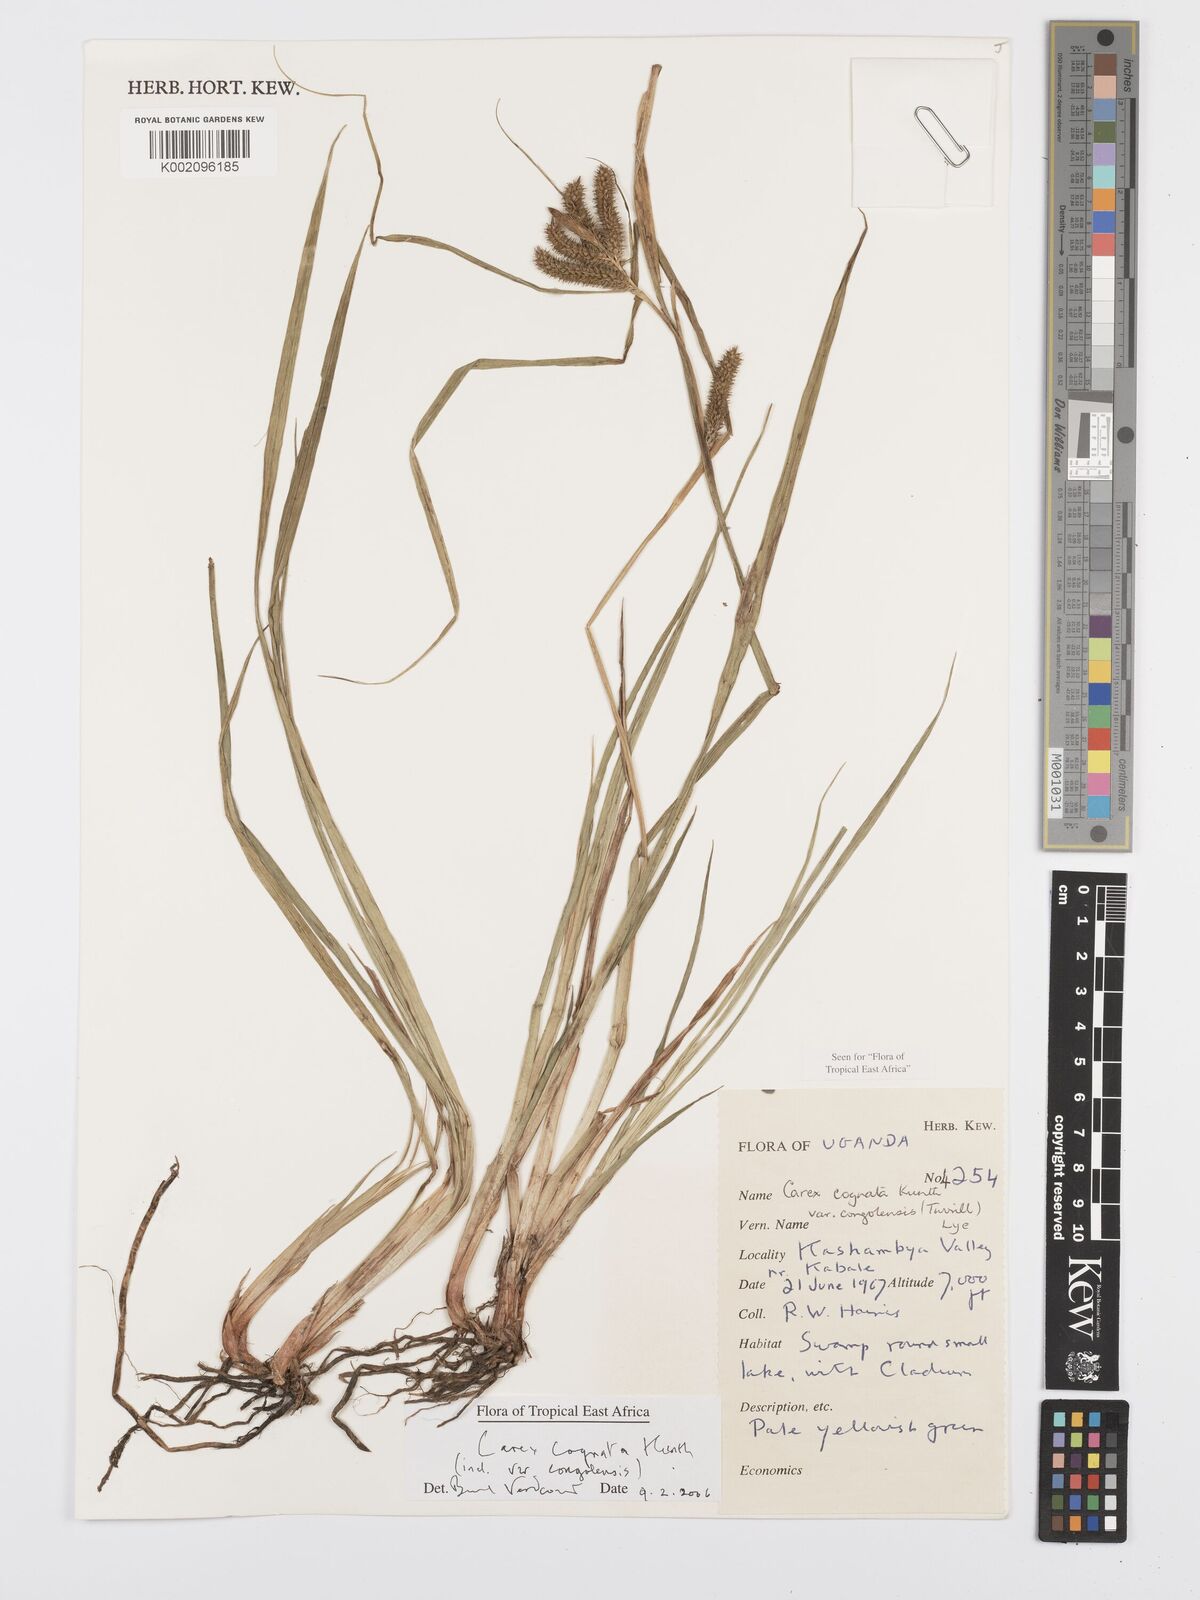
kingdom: Plantae
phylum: Tracheophyta
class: Liliopsida
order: Poales
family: Cyperaceae
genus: Carex
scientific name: Carex congolensis
